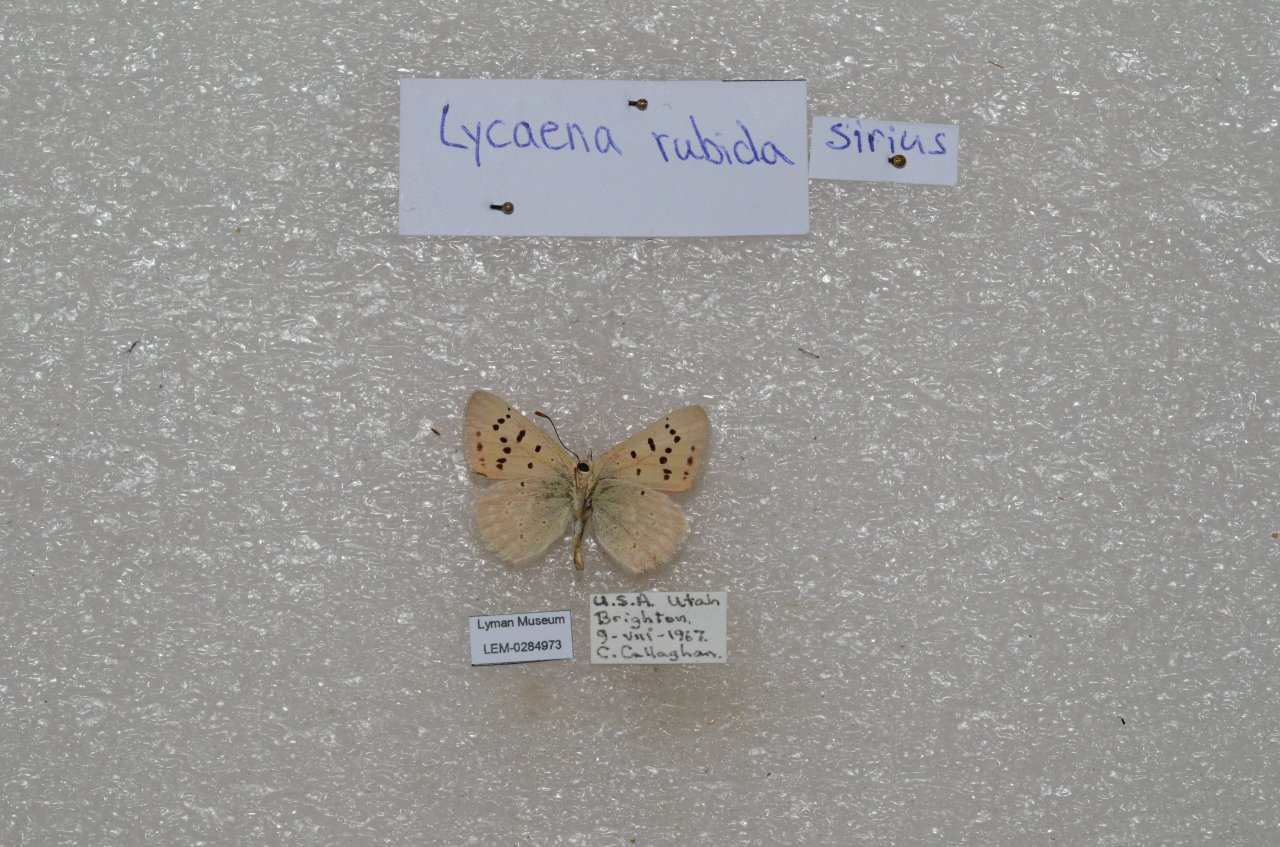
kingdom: Animalia
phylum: Arthropoda
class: Insecta
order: Lepidoptera
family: Sesiidae
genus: Sesia
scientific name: Sesia Lycaena rubidus
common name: Ruddy Copper
